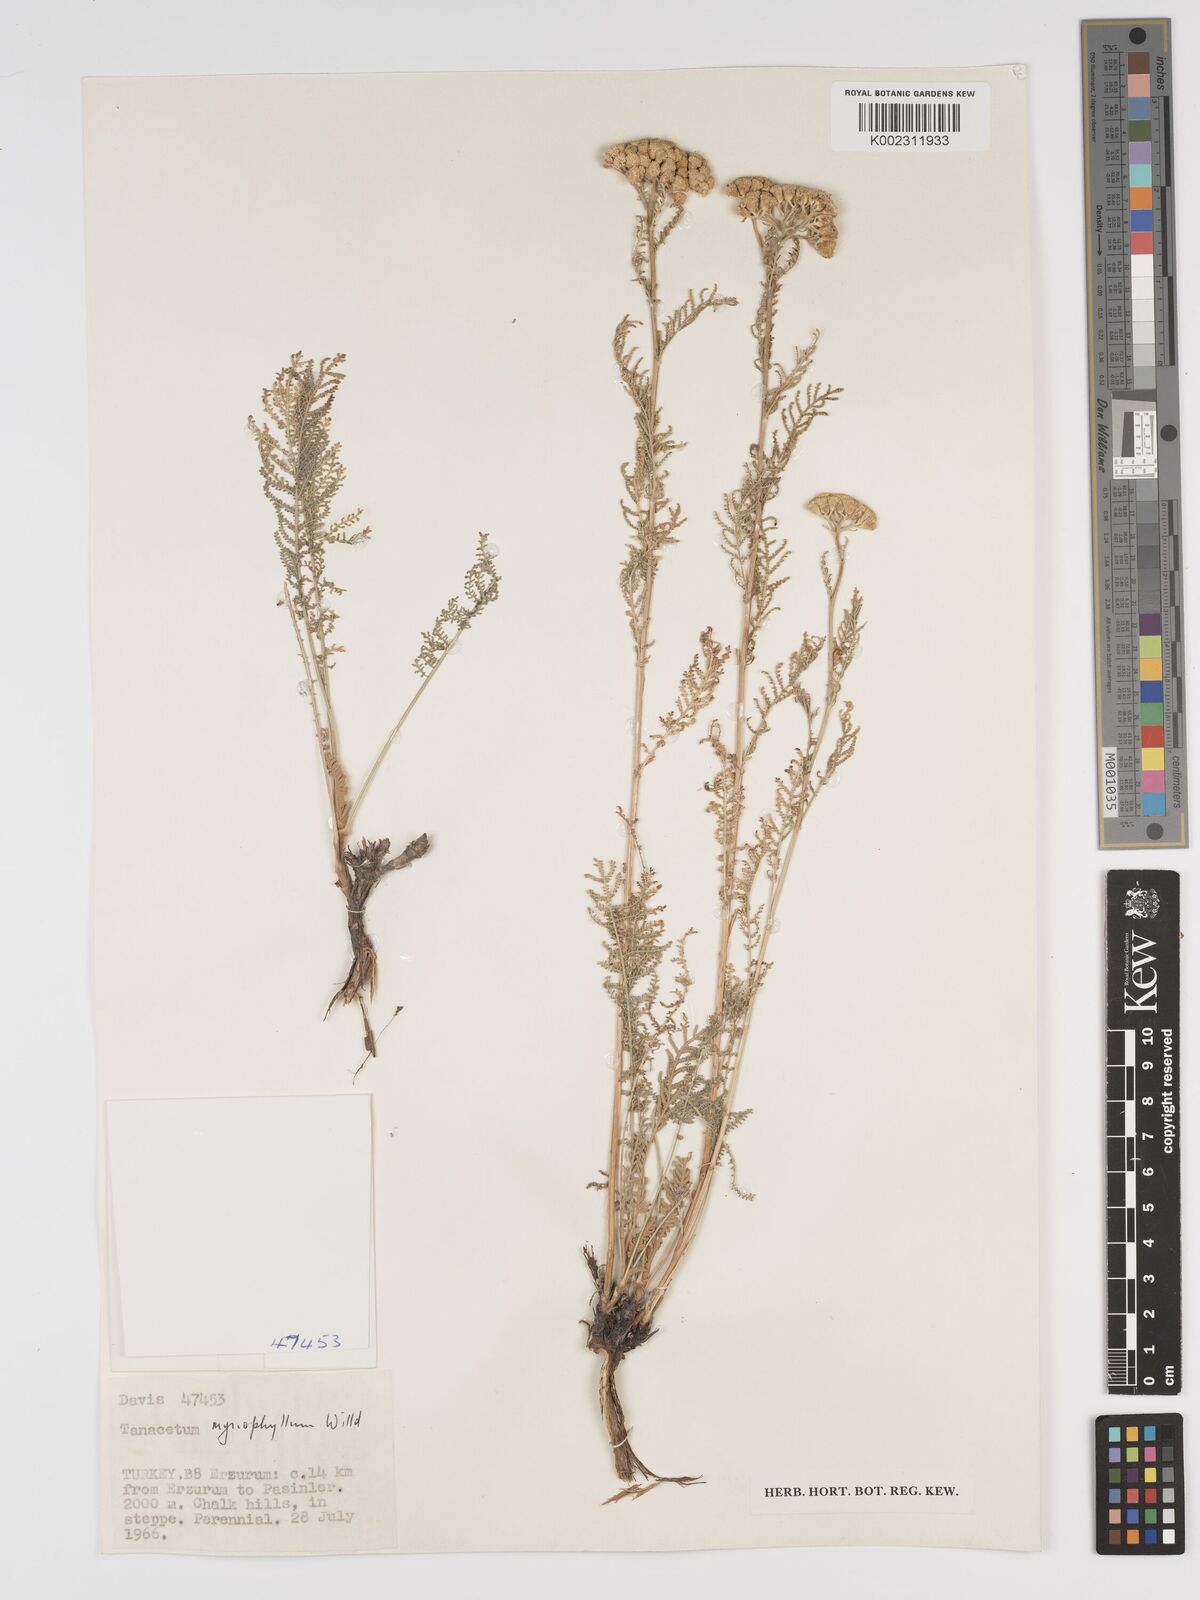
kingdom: Plantae
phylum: Tracheophyta
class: Magnoliopsida
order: Asterales
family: Asteraceae
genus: Tanacetum
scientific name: Tanacetum polycephalum
